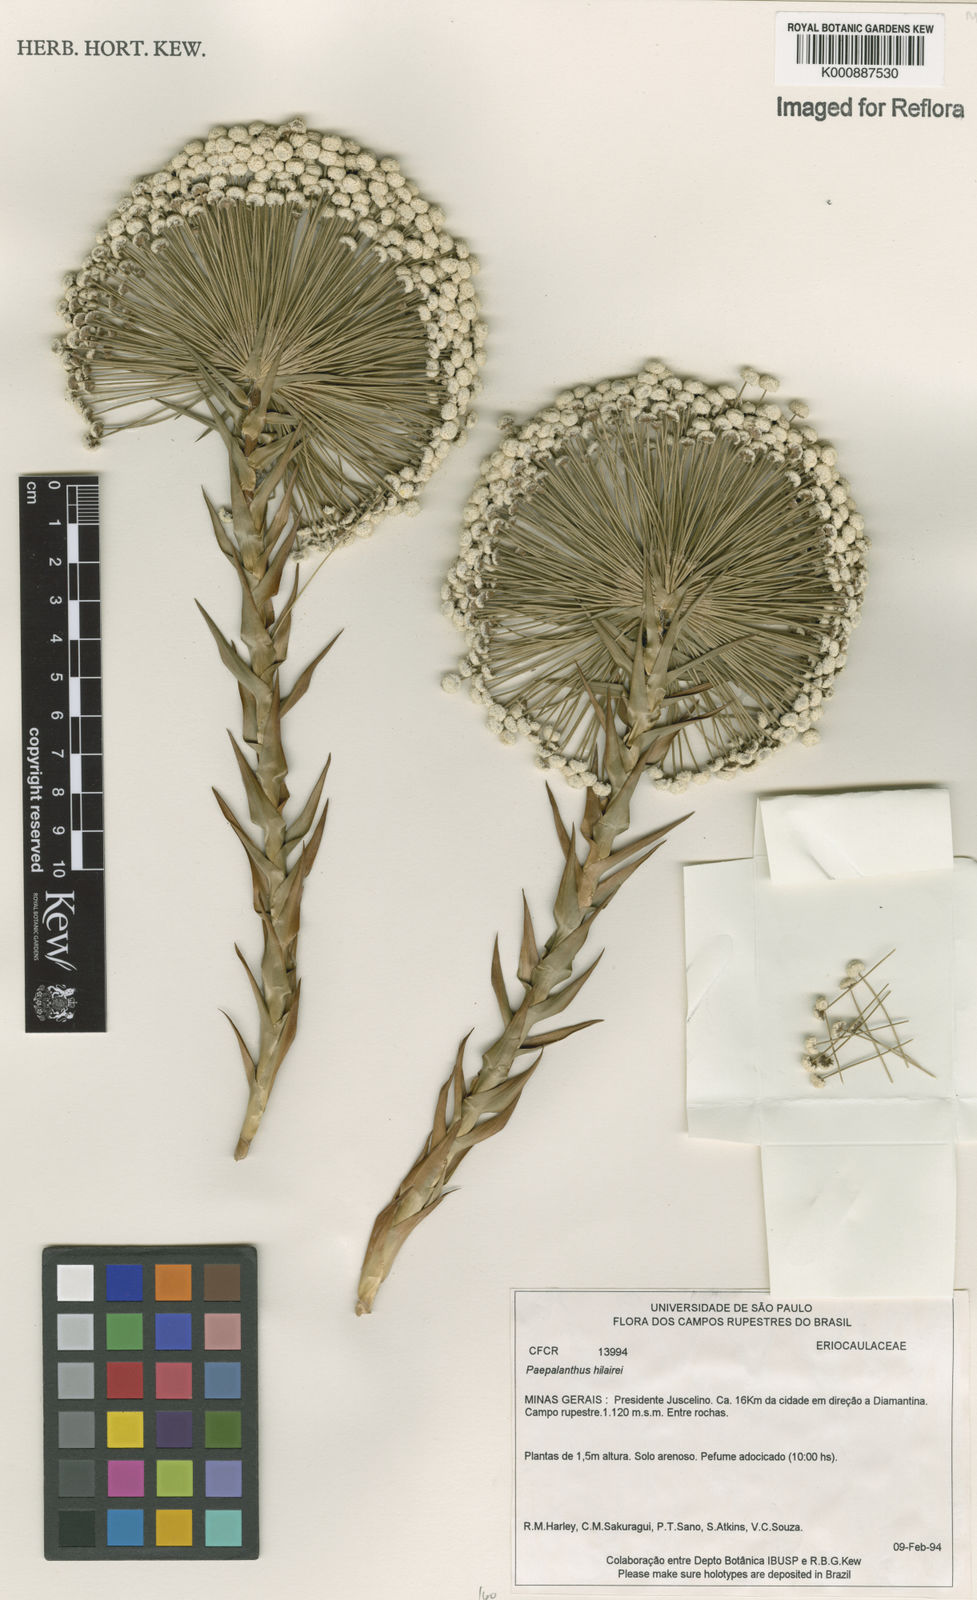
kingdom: Plantae
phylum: Tracheophyta
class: Liliopsida
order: Poales
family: Eriocaulaceae
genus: Paepalanthus
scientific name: Paepalanthus hilairei
